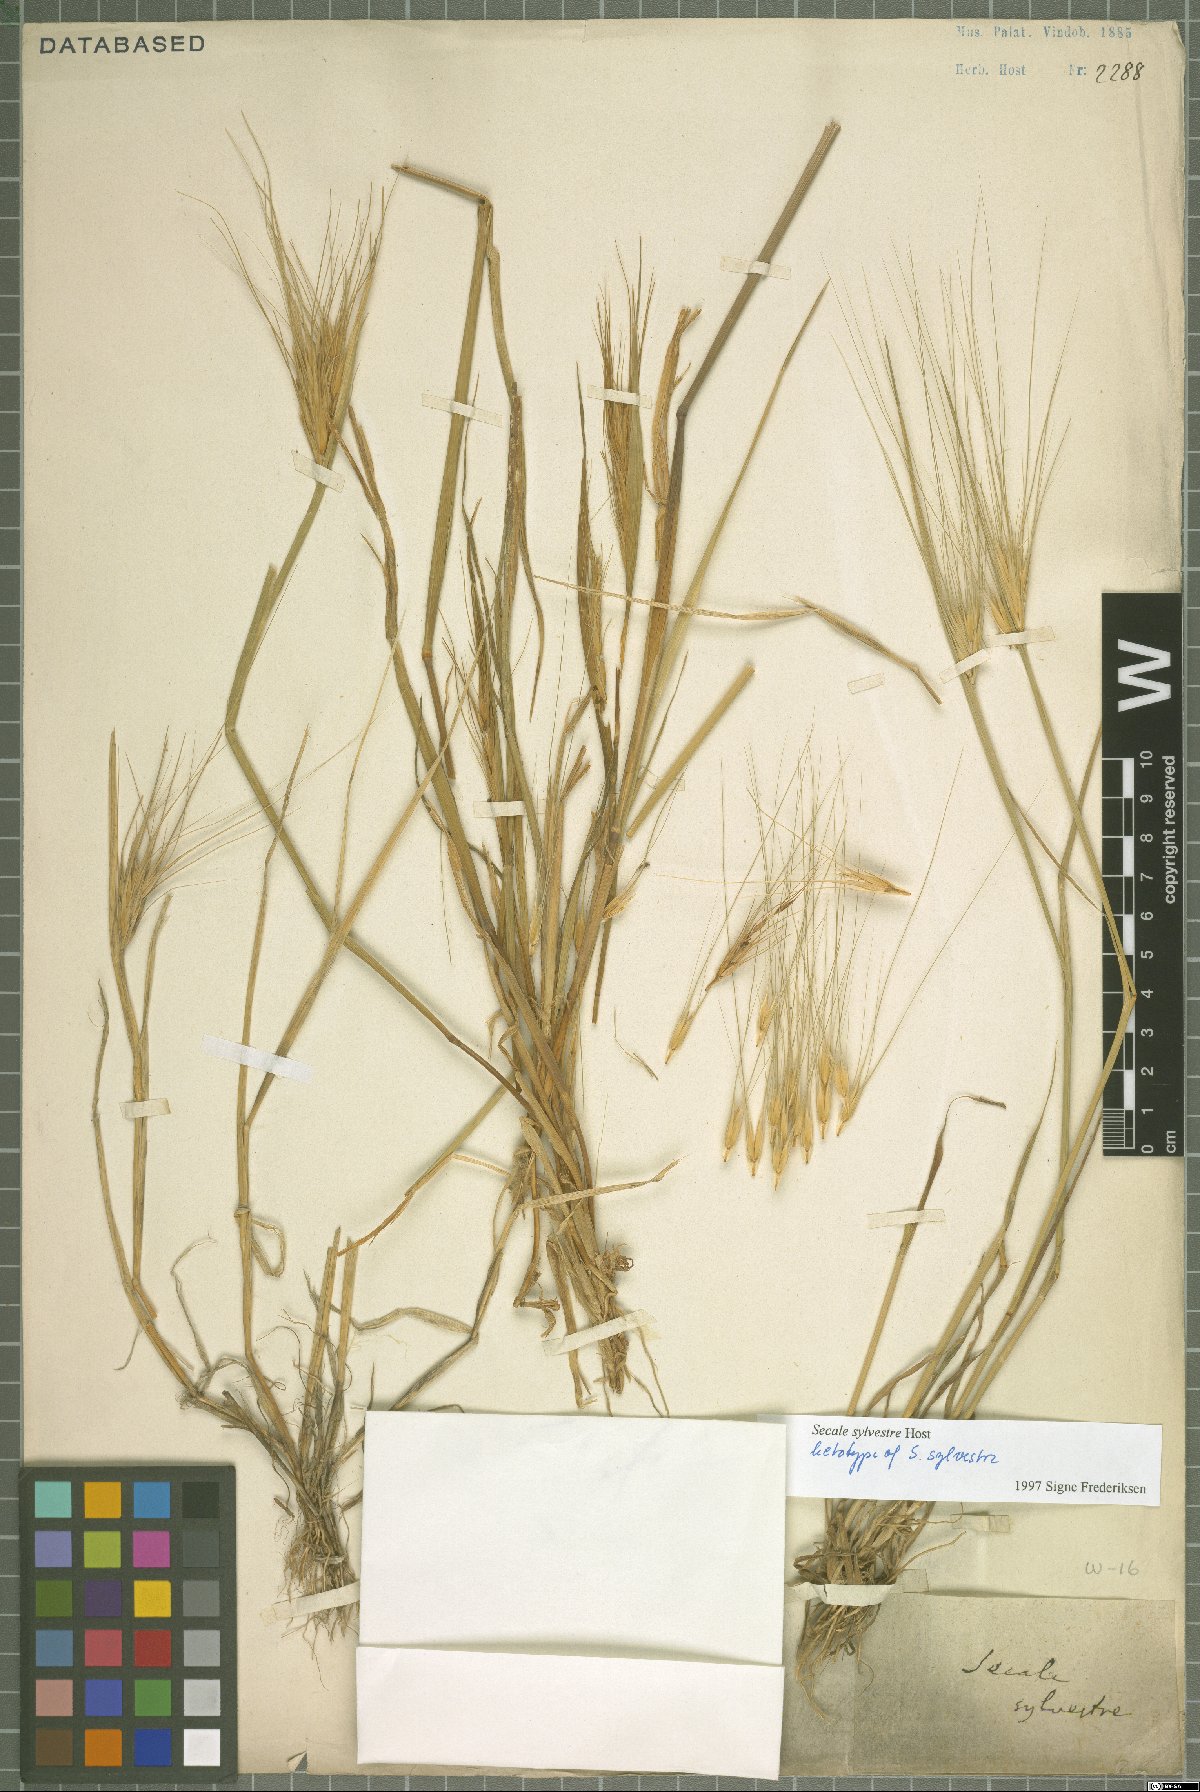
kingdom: Plantae
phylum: Tracheophyta
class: Liliopsida
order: Poales
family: Poaceae
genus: Secale
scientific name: Secale sylvestre
